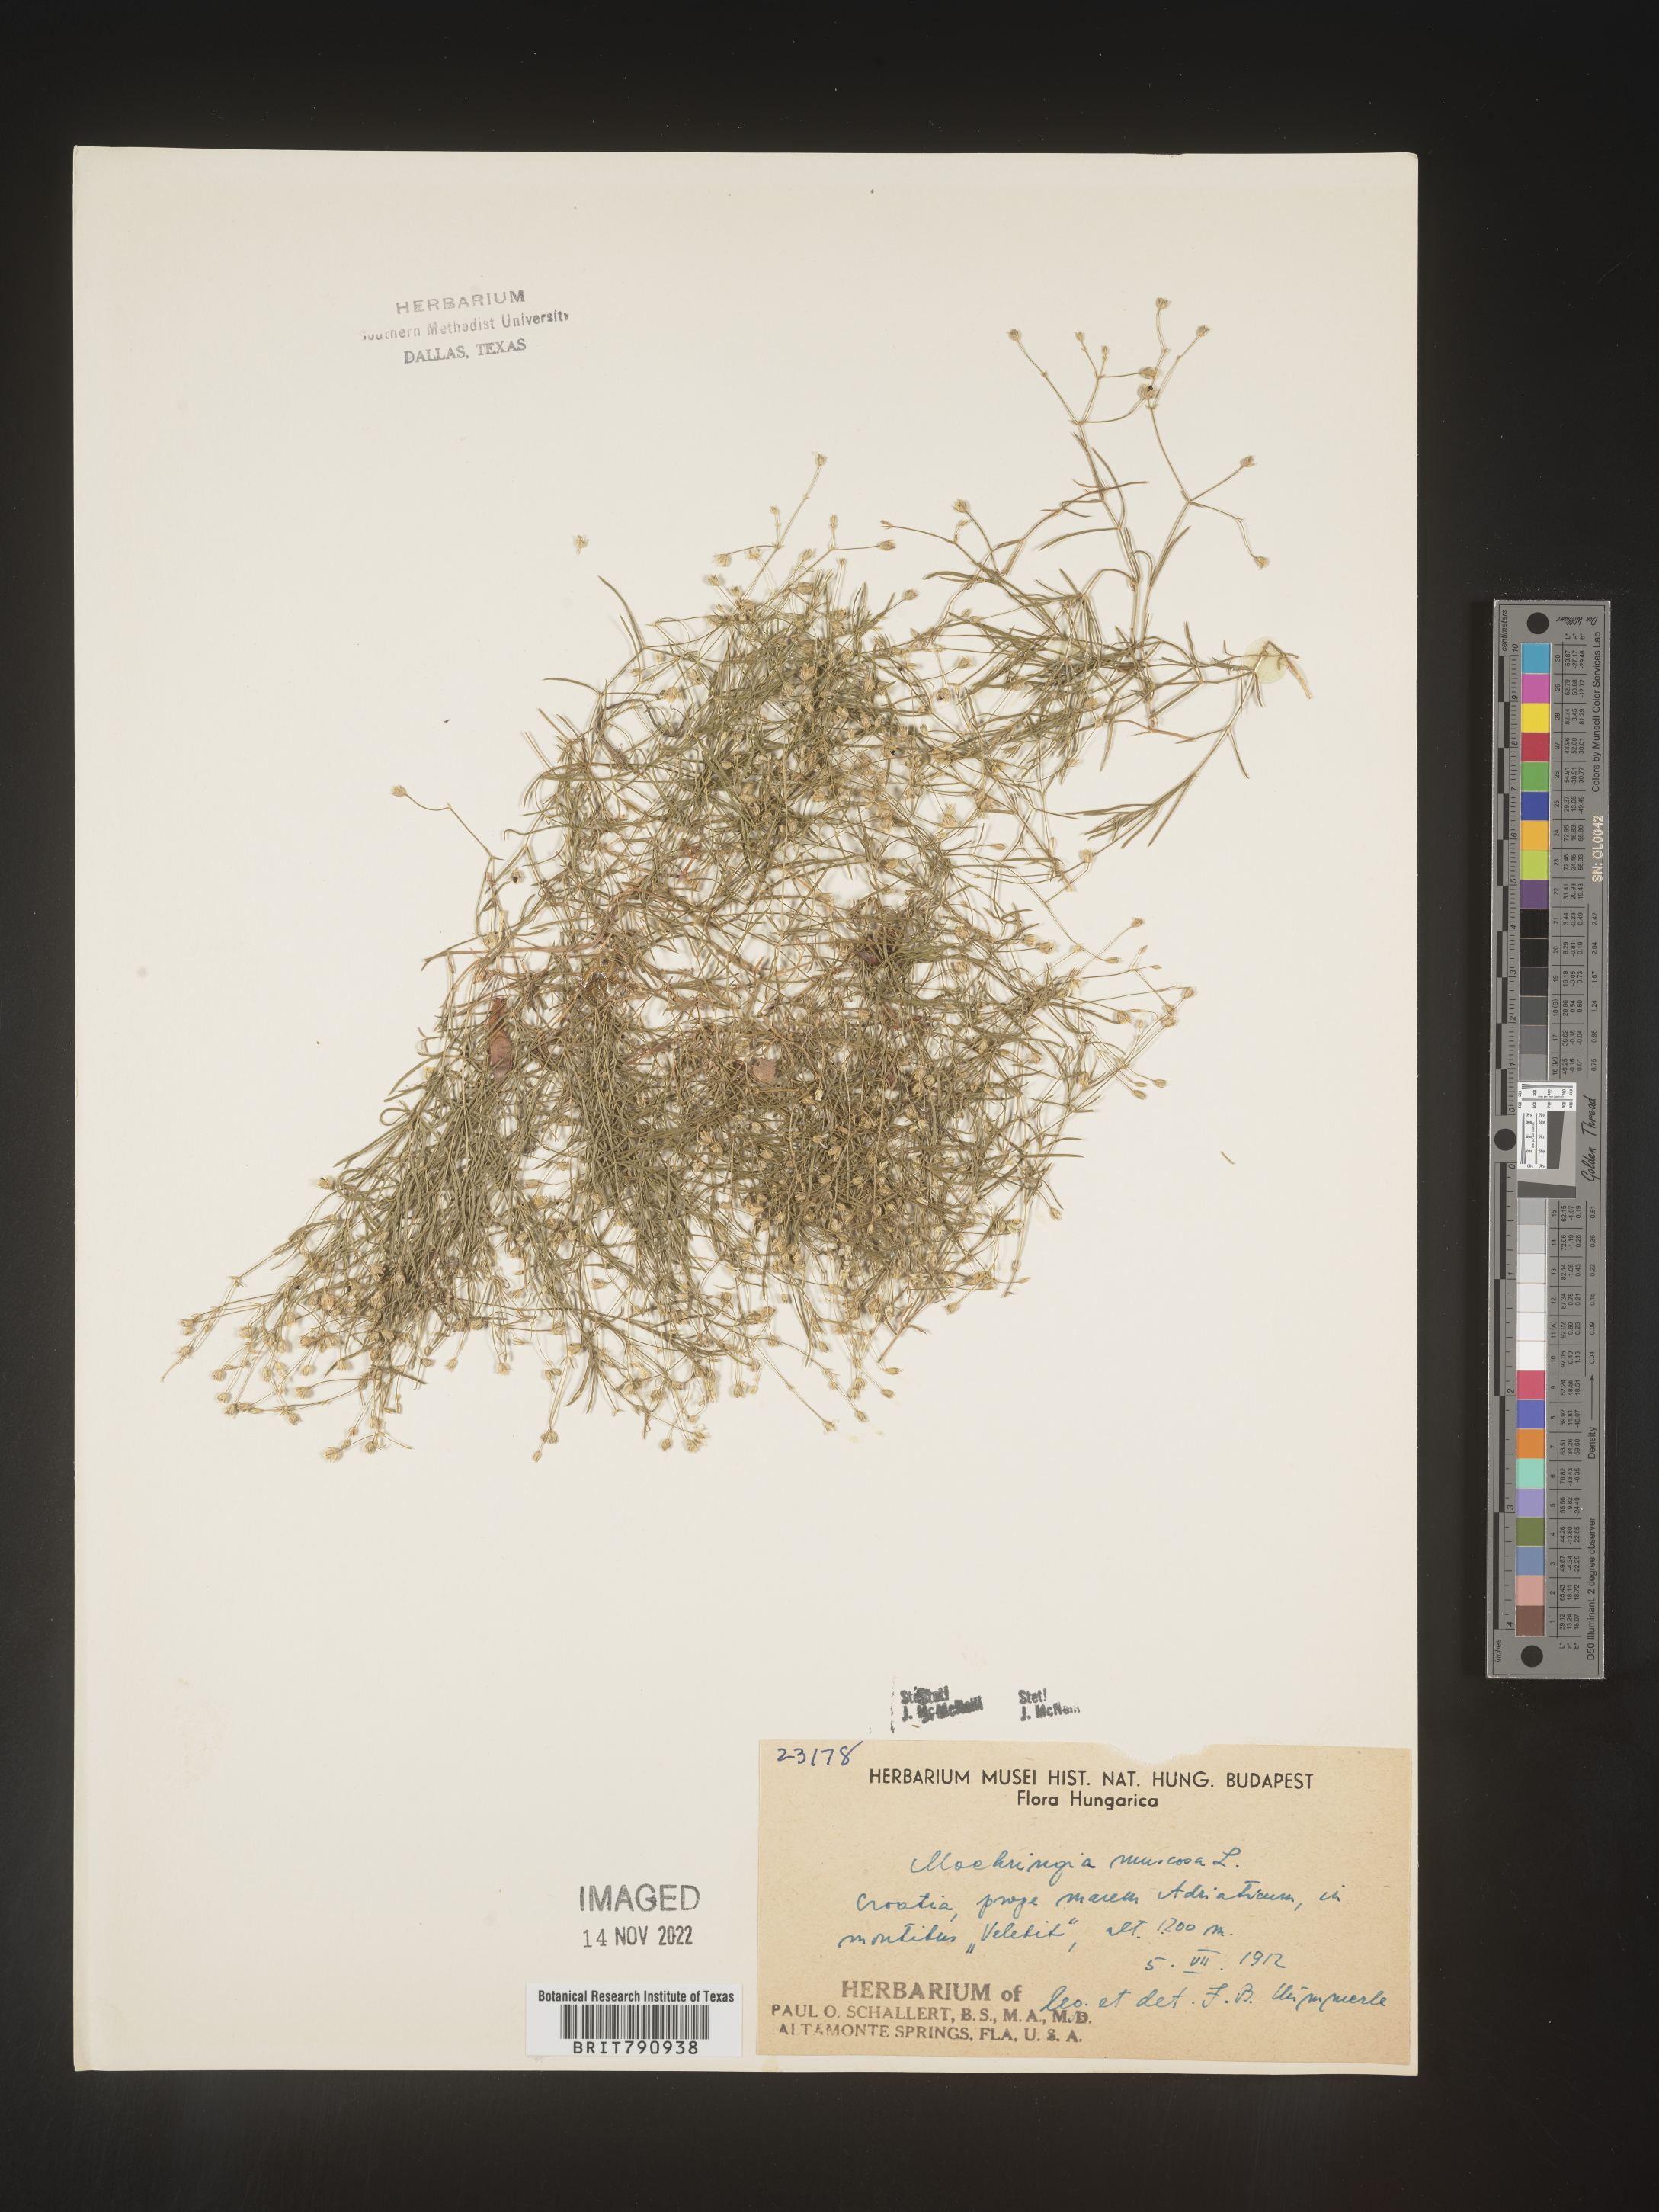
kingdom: Plantae
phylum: Tracheophyta
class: Magnoliopsida
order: Caryophyllales
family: Caryophyllaceae
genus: Moehringia
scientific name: Moehringia
